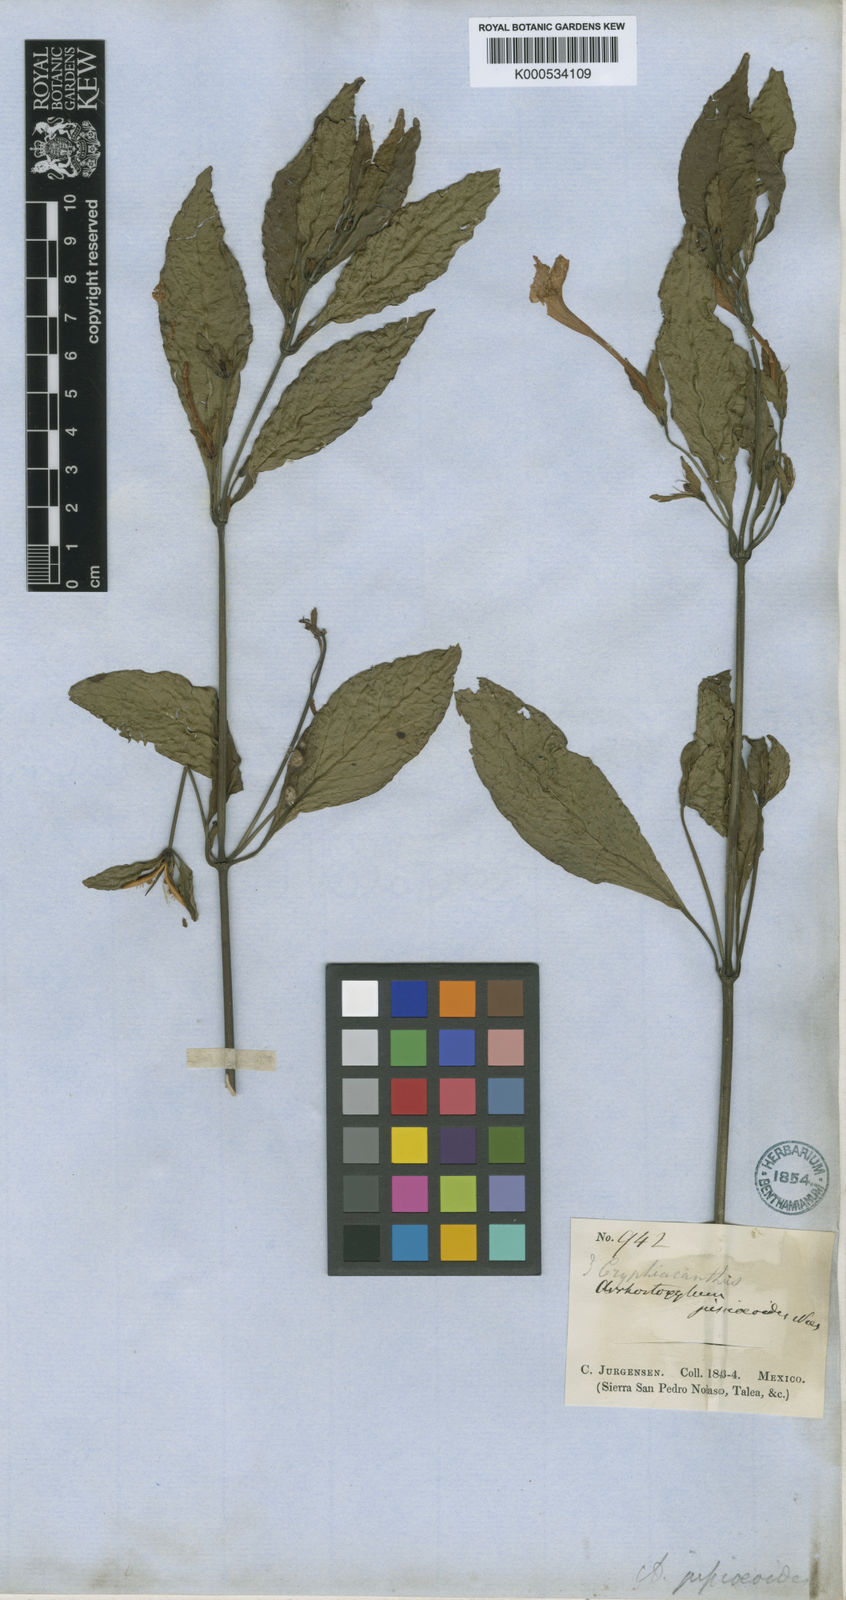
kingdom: Plantae
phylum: Tracheophyta
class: Magnoliopsida
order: Lamiales
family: Acanthaceae
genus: Ruellia
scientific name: Ruellia jussieuoides
